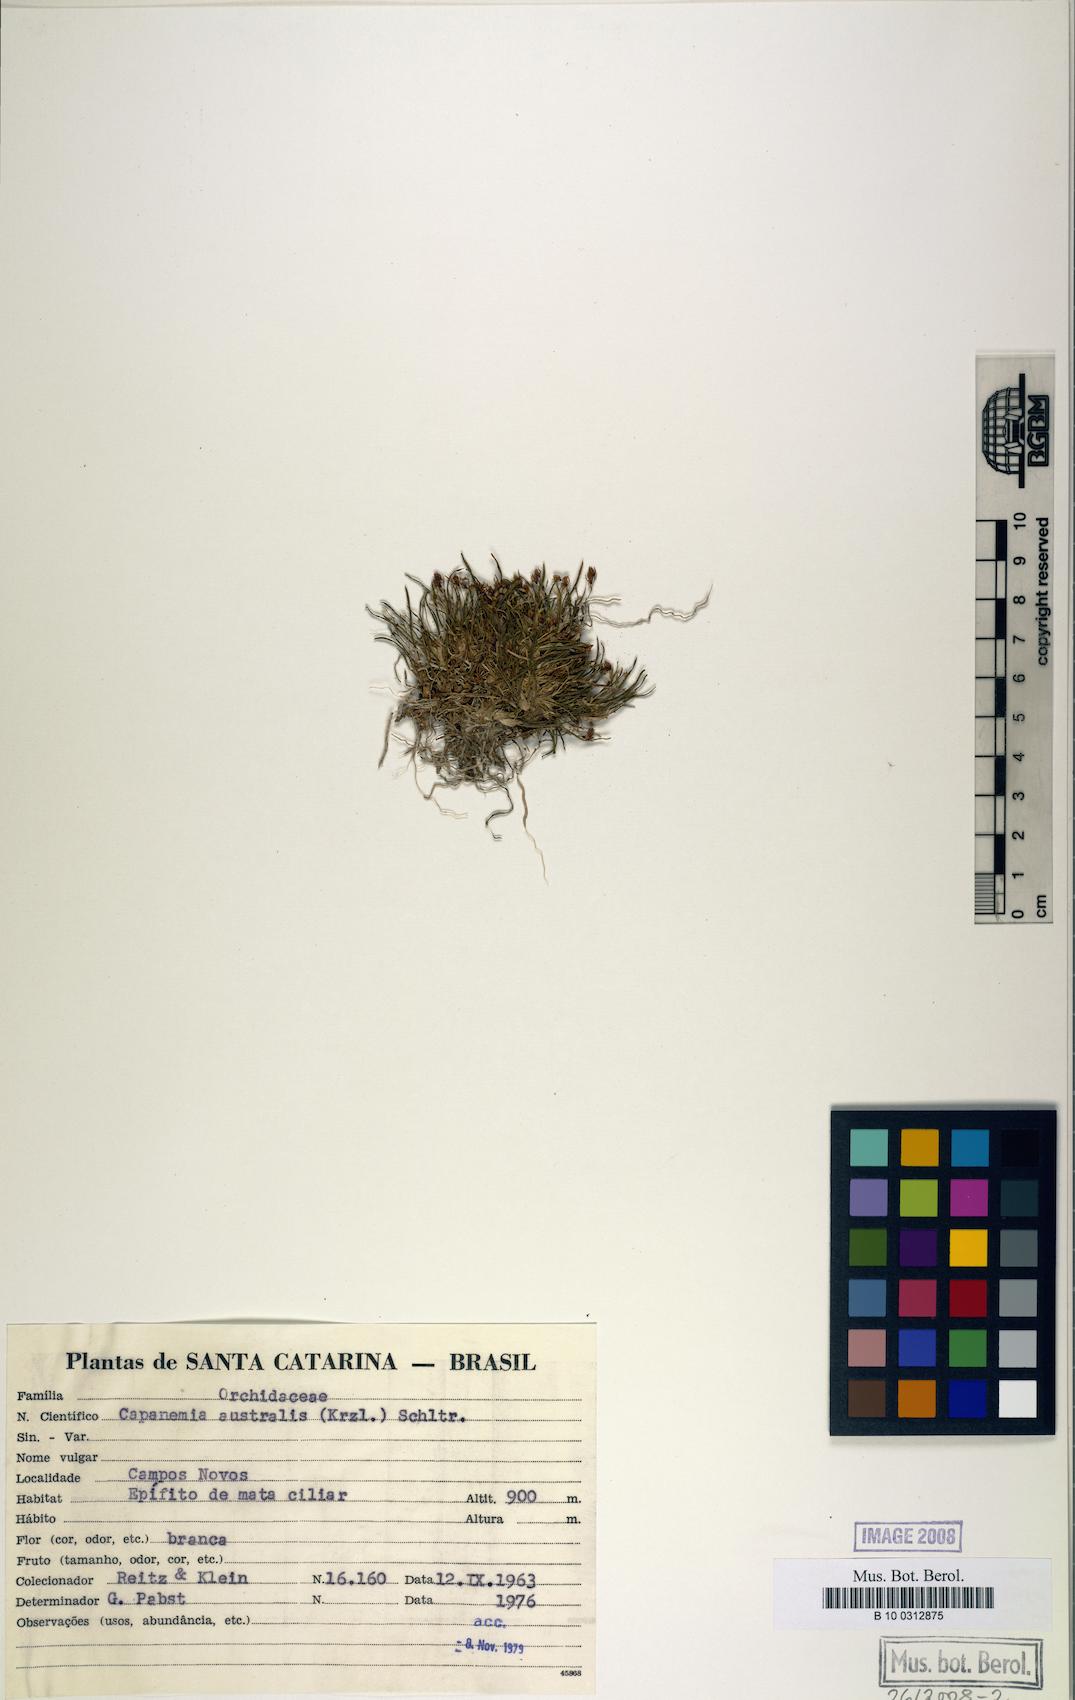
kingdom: Plantae
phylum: Tracheophyta
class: Liliopsida
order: Asparagales
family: Orchidaceae
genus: Capanemia
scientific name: Capanemia micromera
